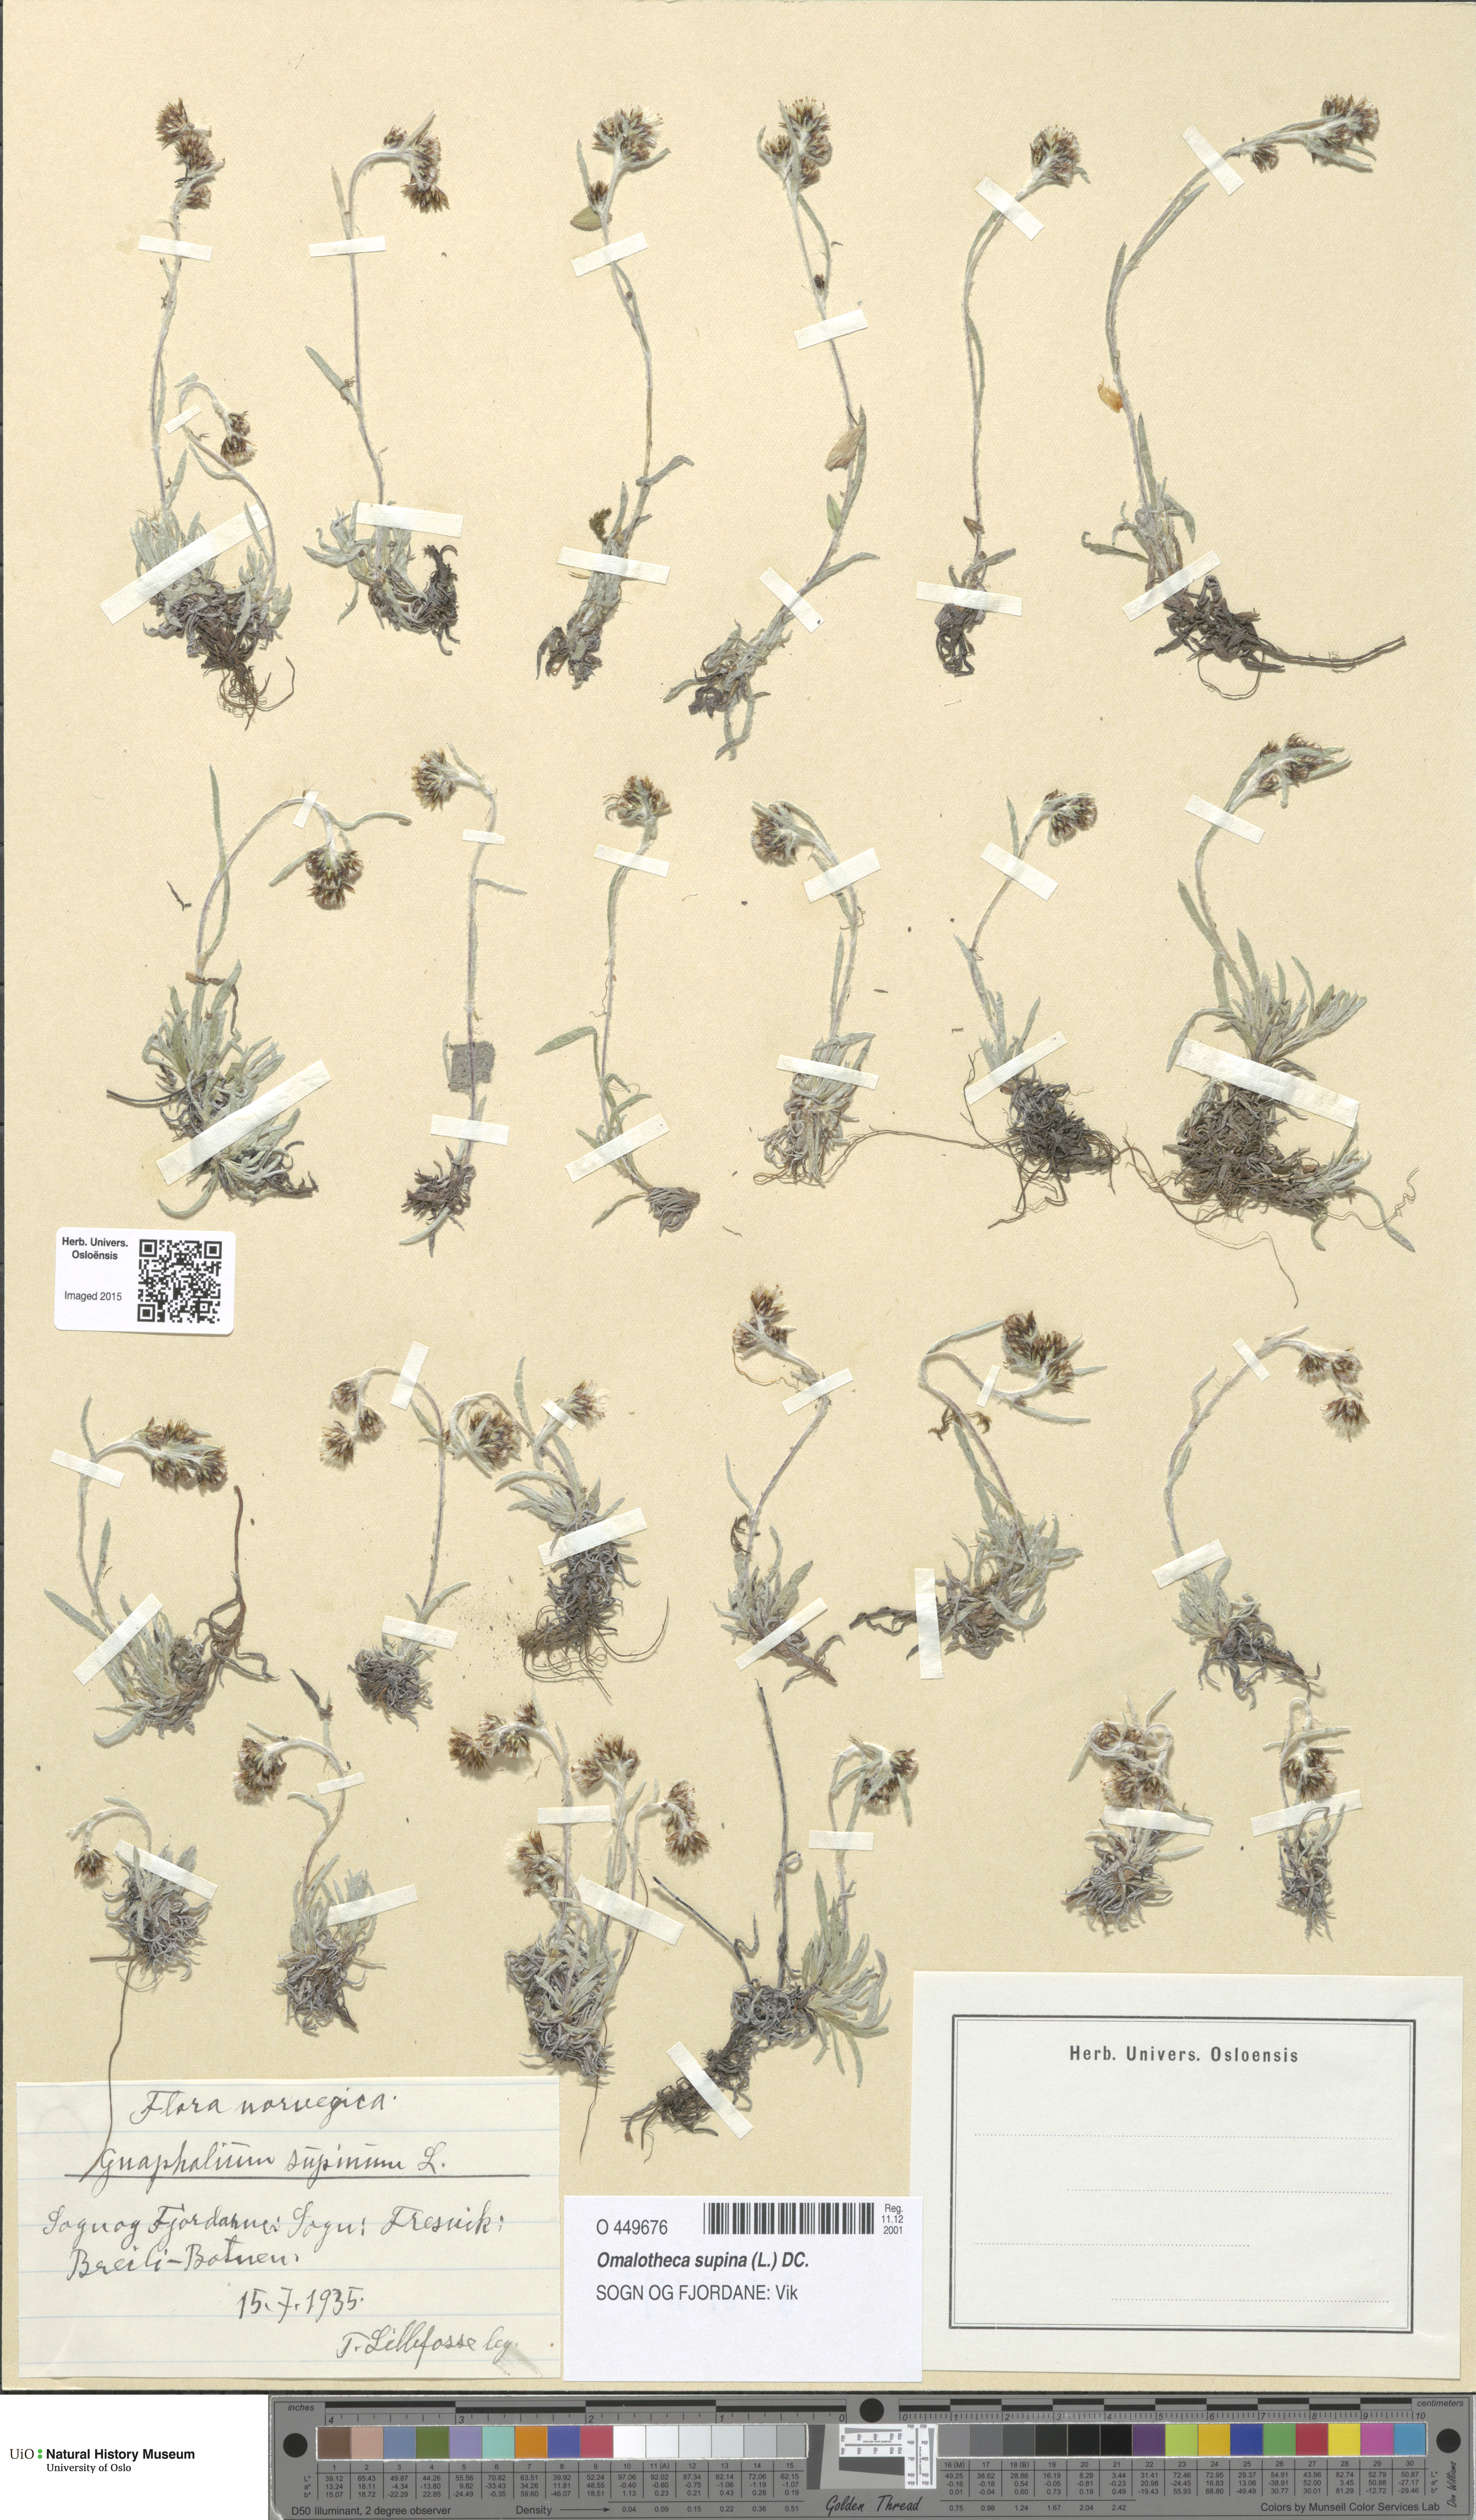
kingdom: Plantae
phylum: Tracheophyta
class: Magnoliopsida
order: Asterales
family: Asteraceae
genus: Omalotheca
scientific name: Omalotheca supina
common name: Alpine arctic-cudweed
